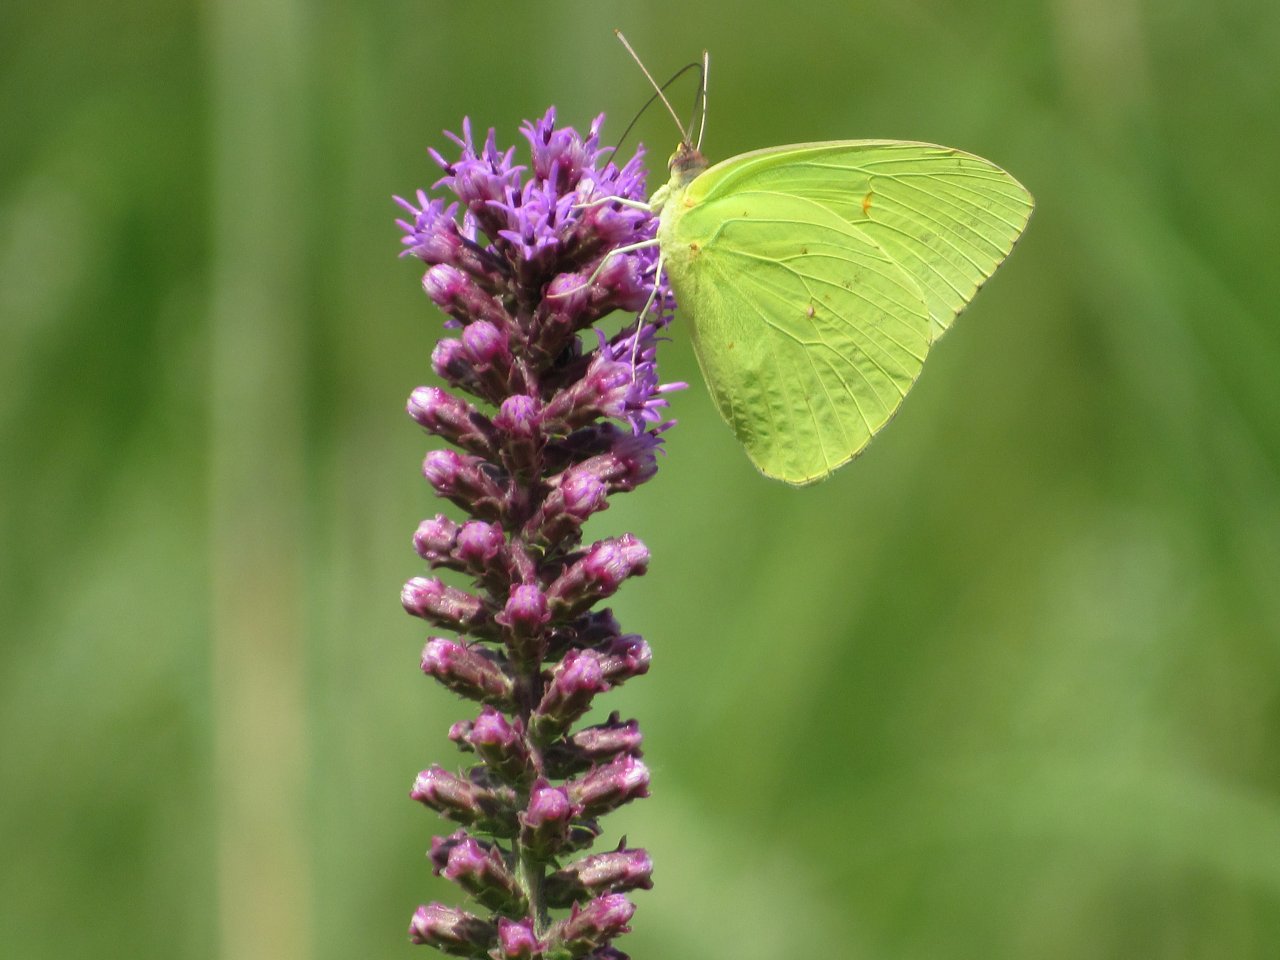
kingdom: Animalia
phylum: Arthropoda
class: Insecta
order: Lepidoptera
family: Pieridae
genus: Phoebis
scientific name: Phoebis sennae
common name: Cloudless Sulphur
